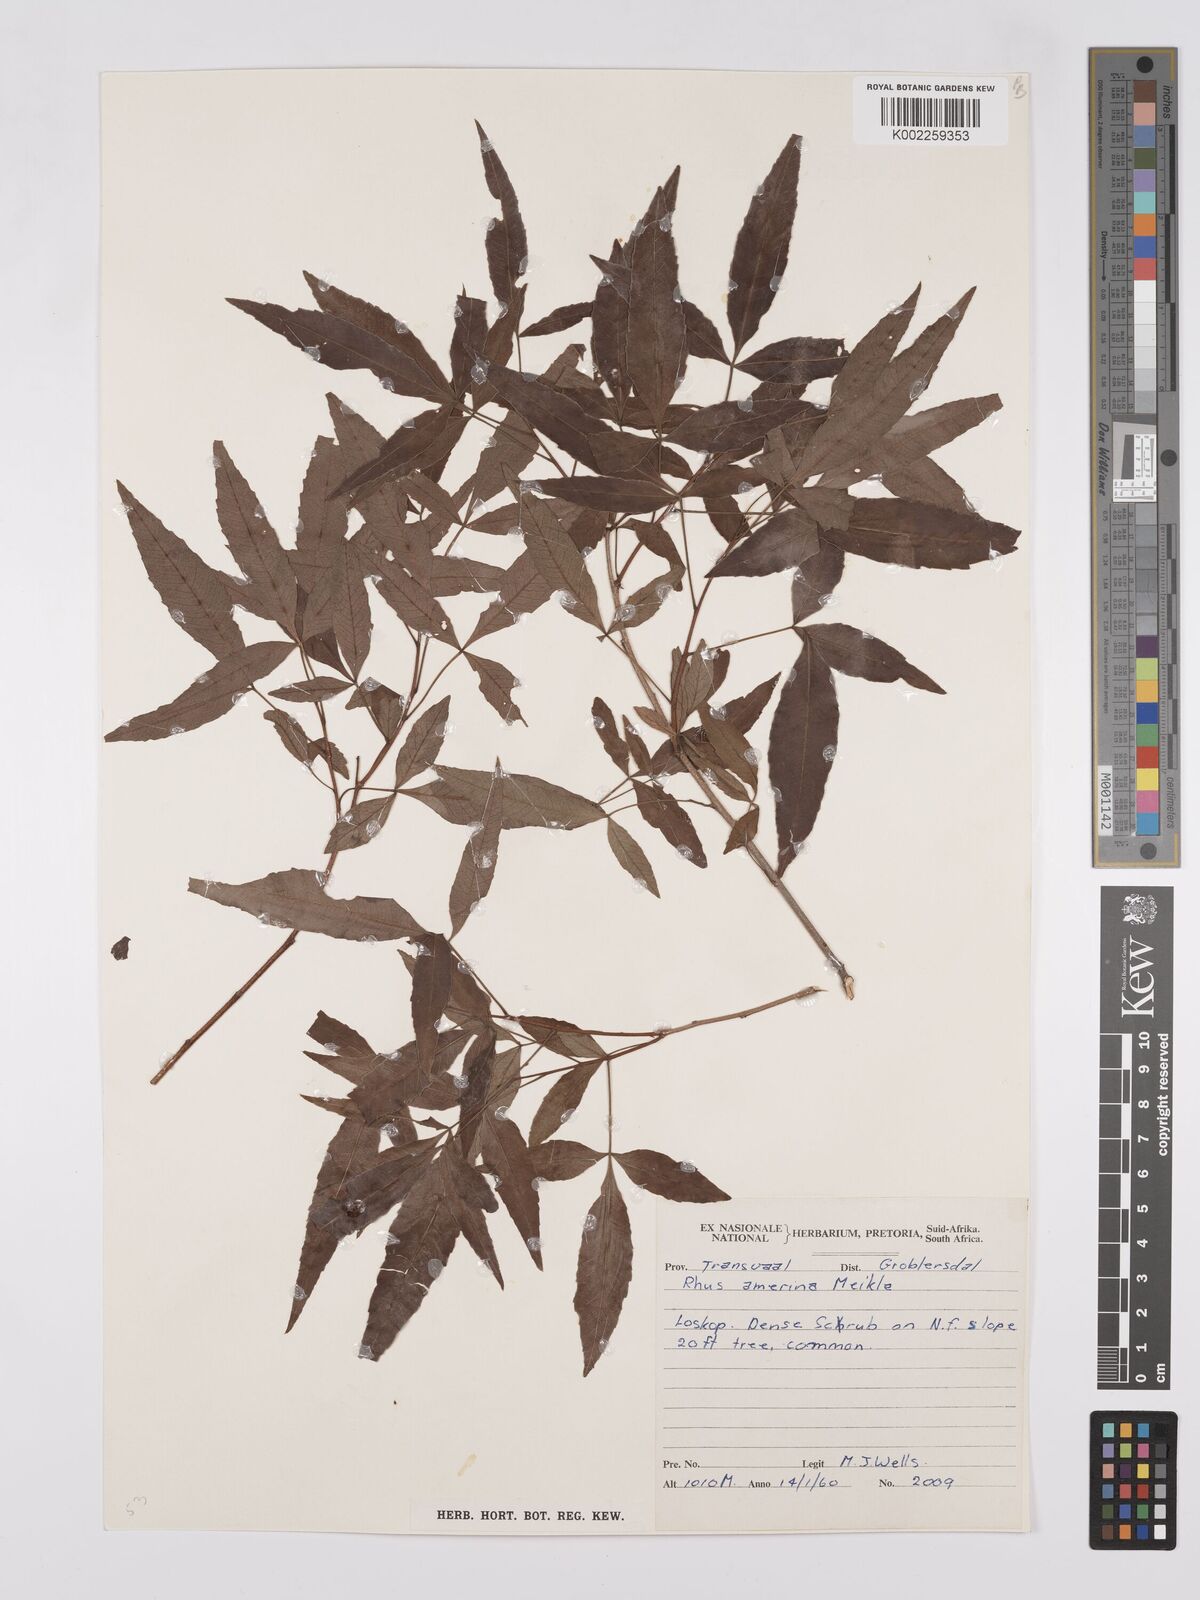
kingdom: Plantae
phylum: Tracheophyta
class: Magnoliopsida
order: Sapindales
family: Anacardiaceae
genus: Searsia
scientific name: Searsia leptodictya
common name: Mountain karee
